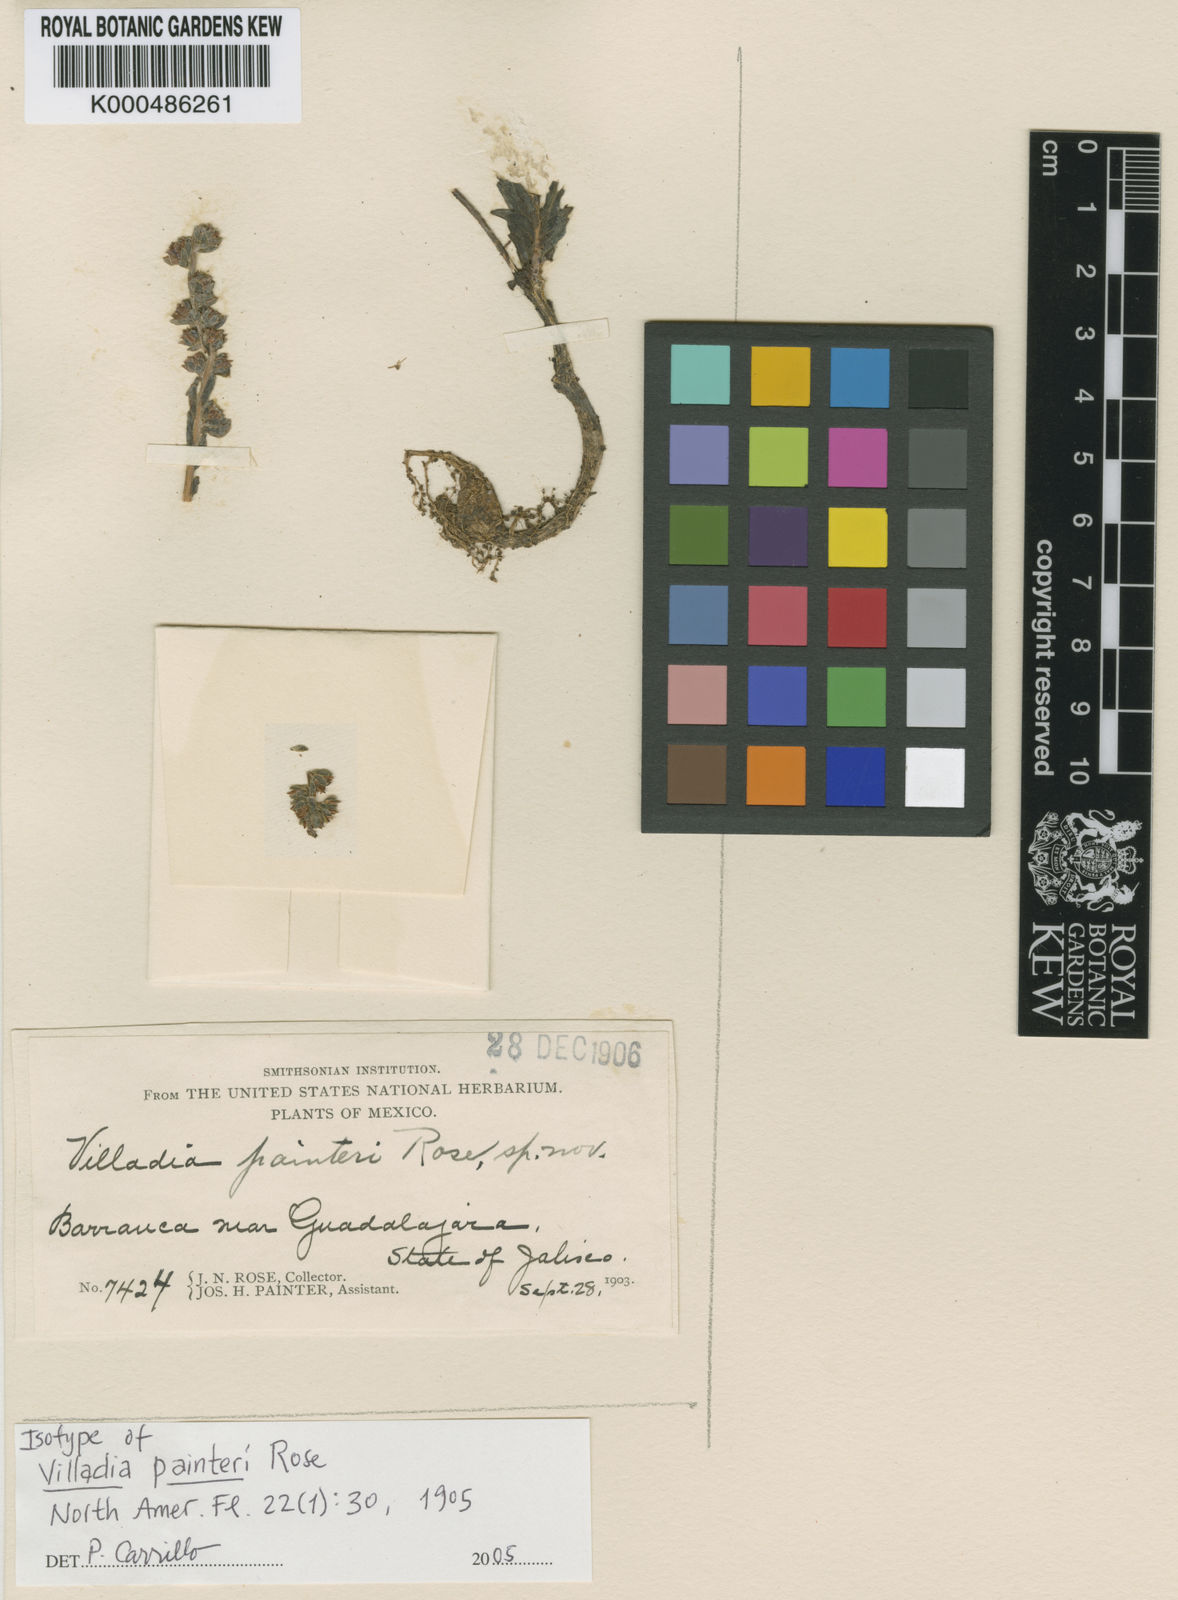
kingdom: Plantae
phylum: Tracheophyta
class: Magnoliopsida
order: Saxifragales
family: Crassulaceae
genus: Villadia
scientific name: Villadia painteri
